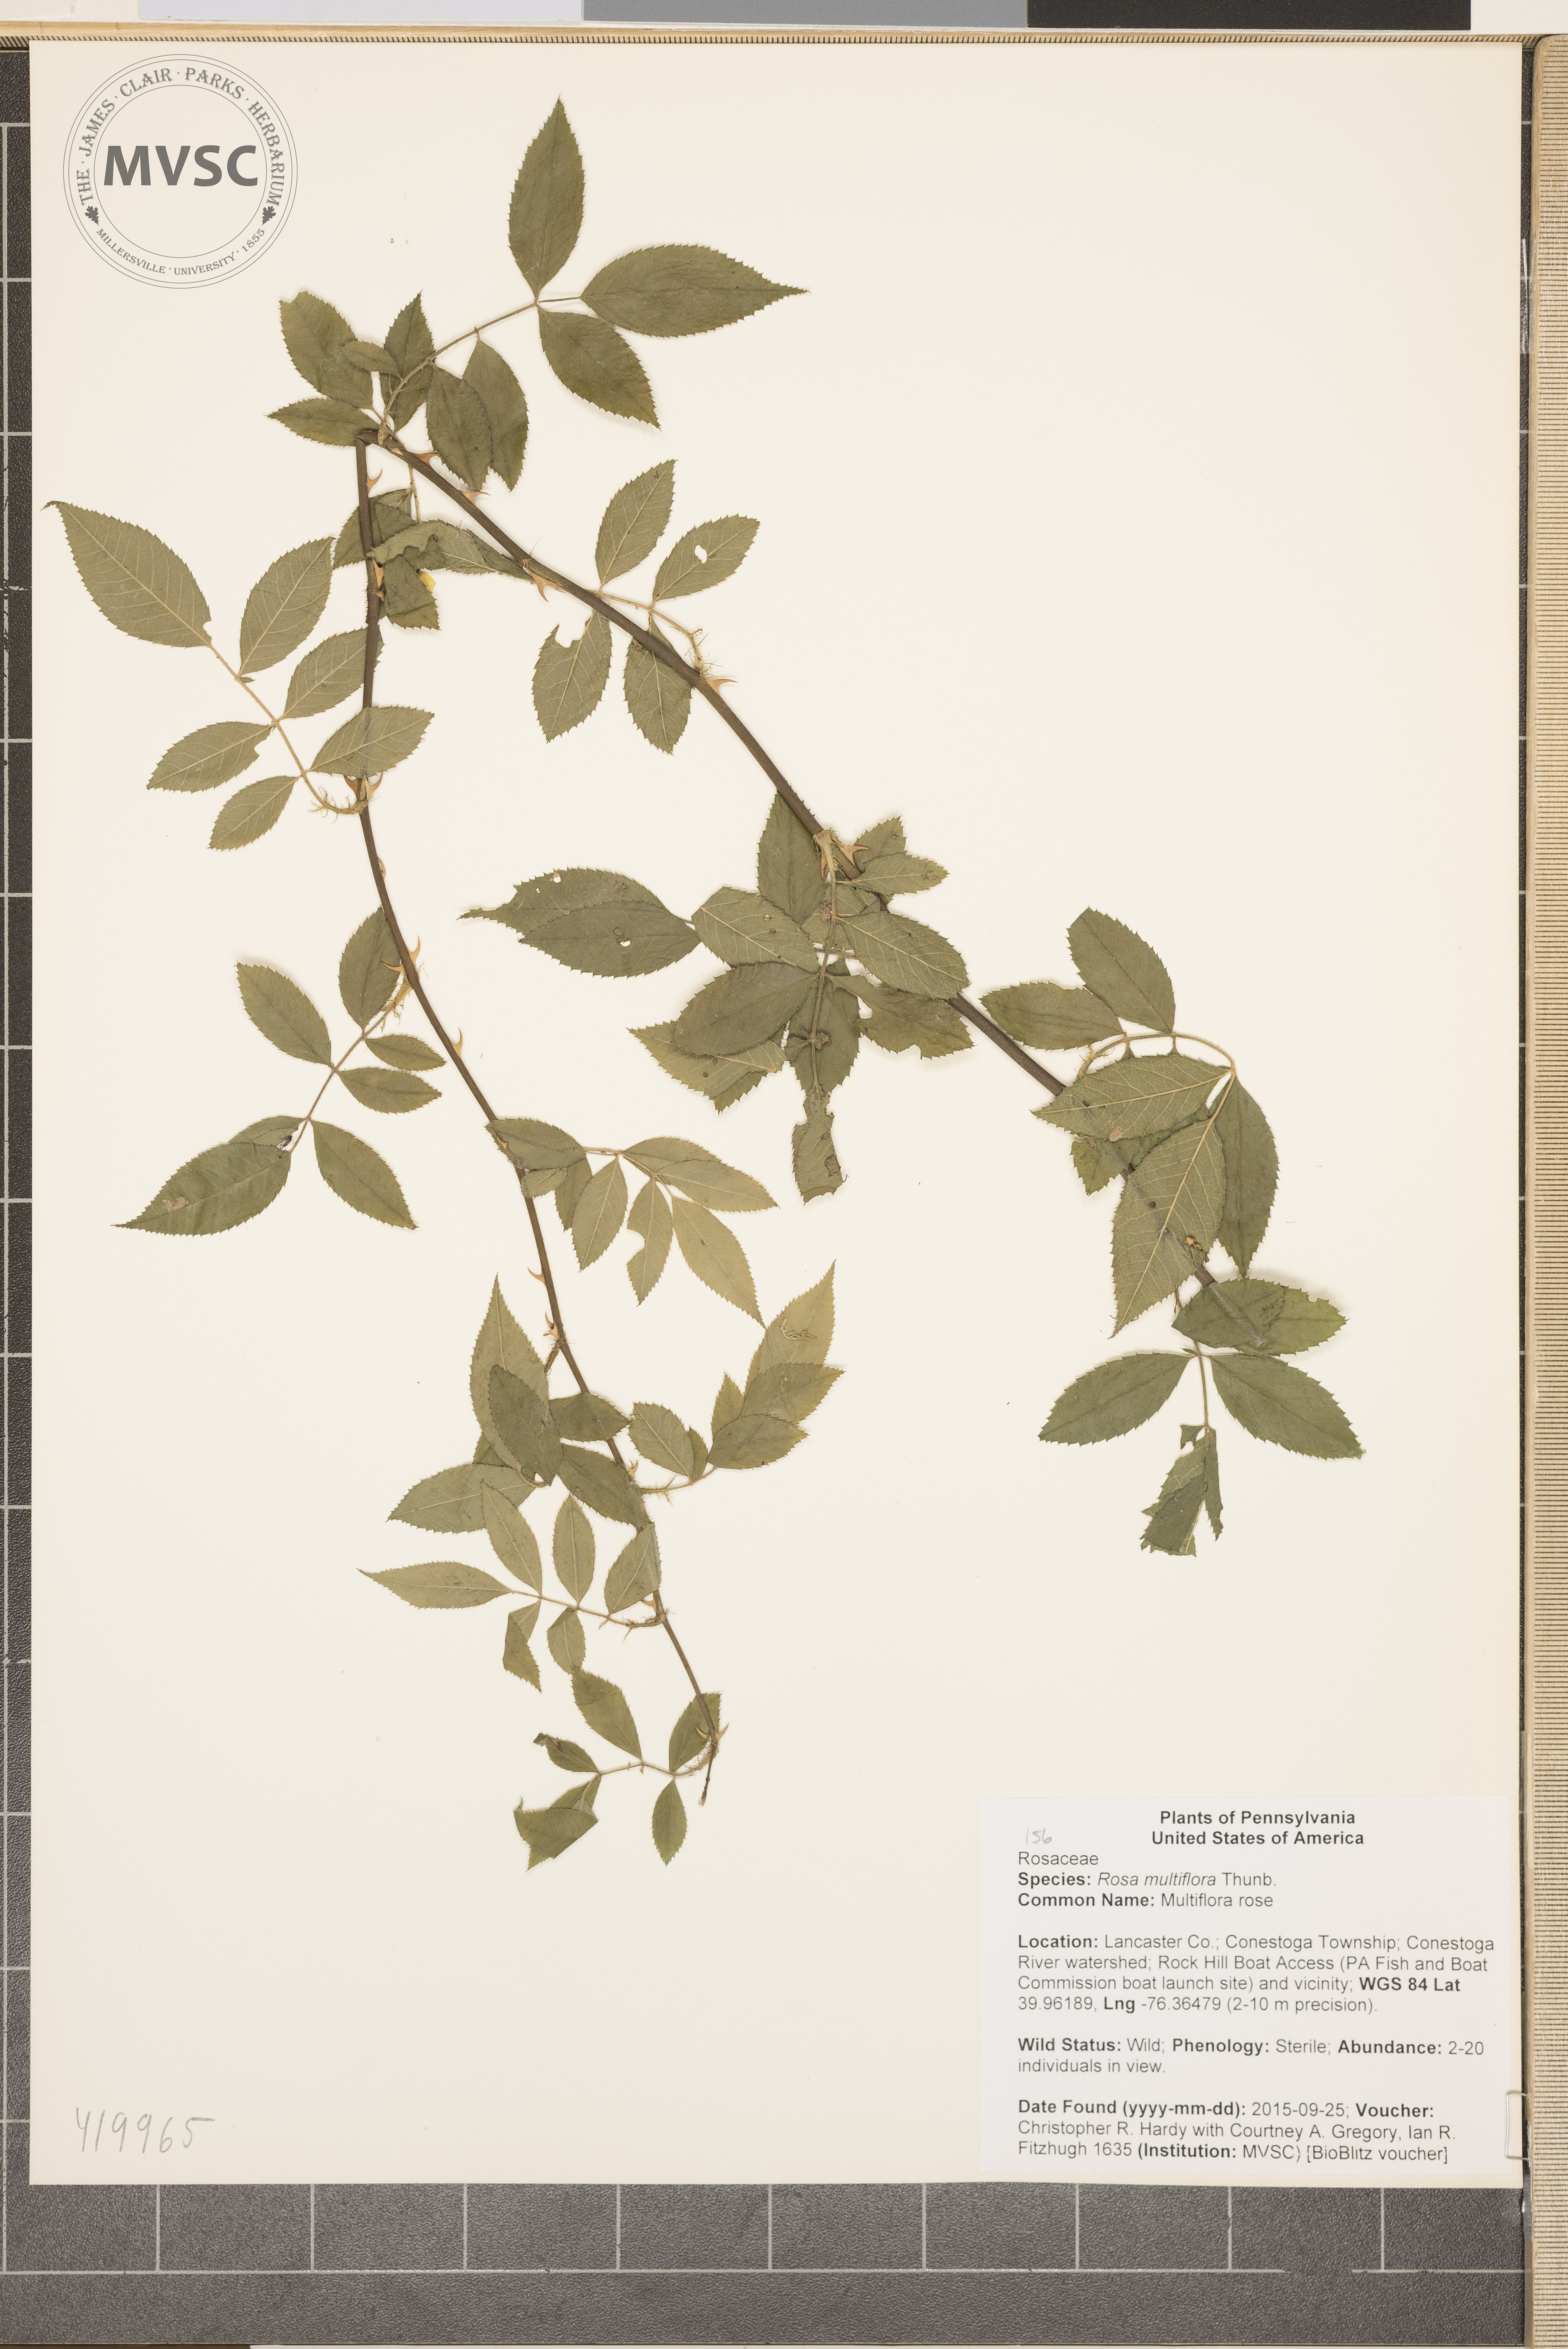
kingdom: Plantae
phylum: Tracheophyta
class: Magnoliopsida
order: Rosales
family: Rosaceae
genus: Rosa
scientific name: Rosa multiflora
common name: Multiflora rose
